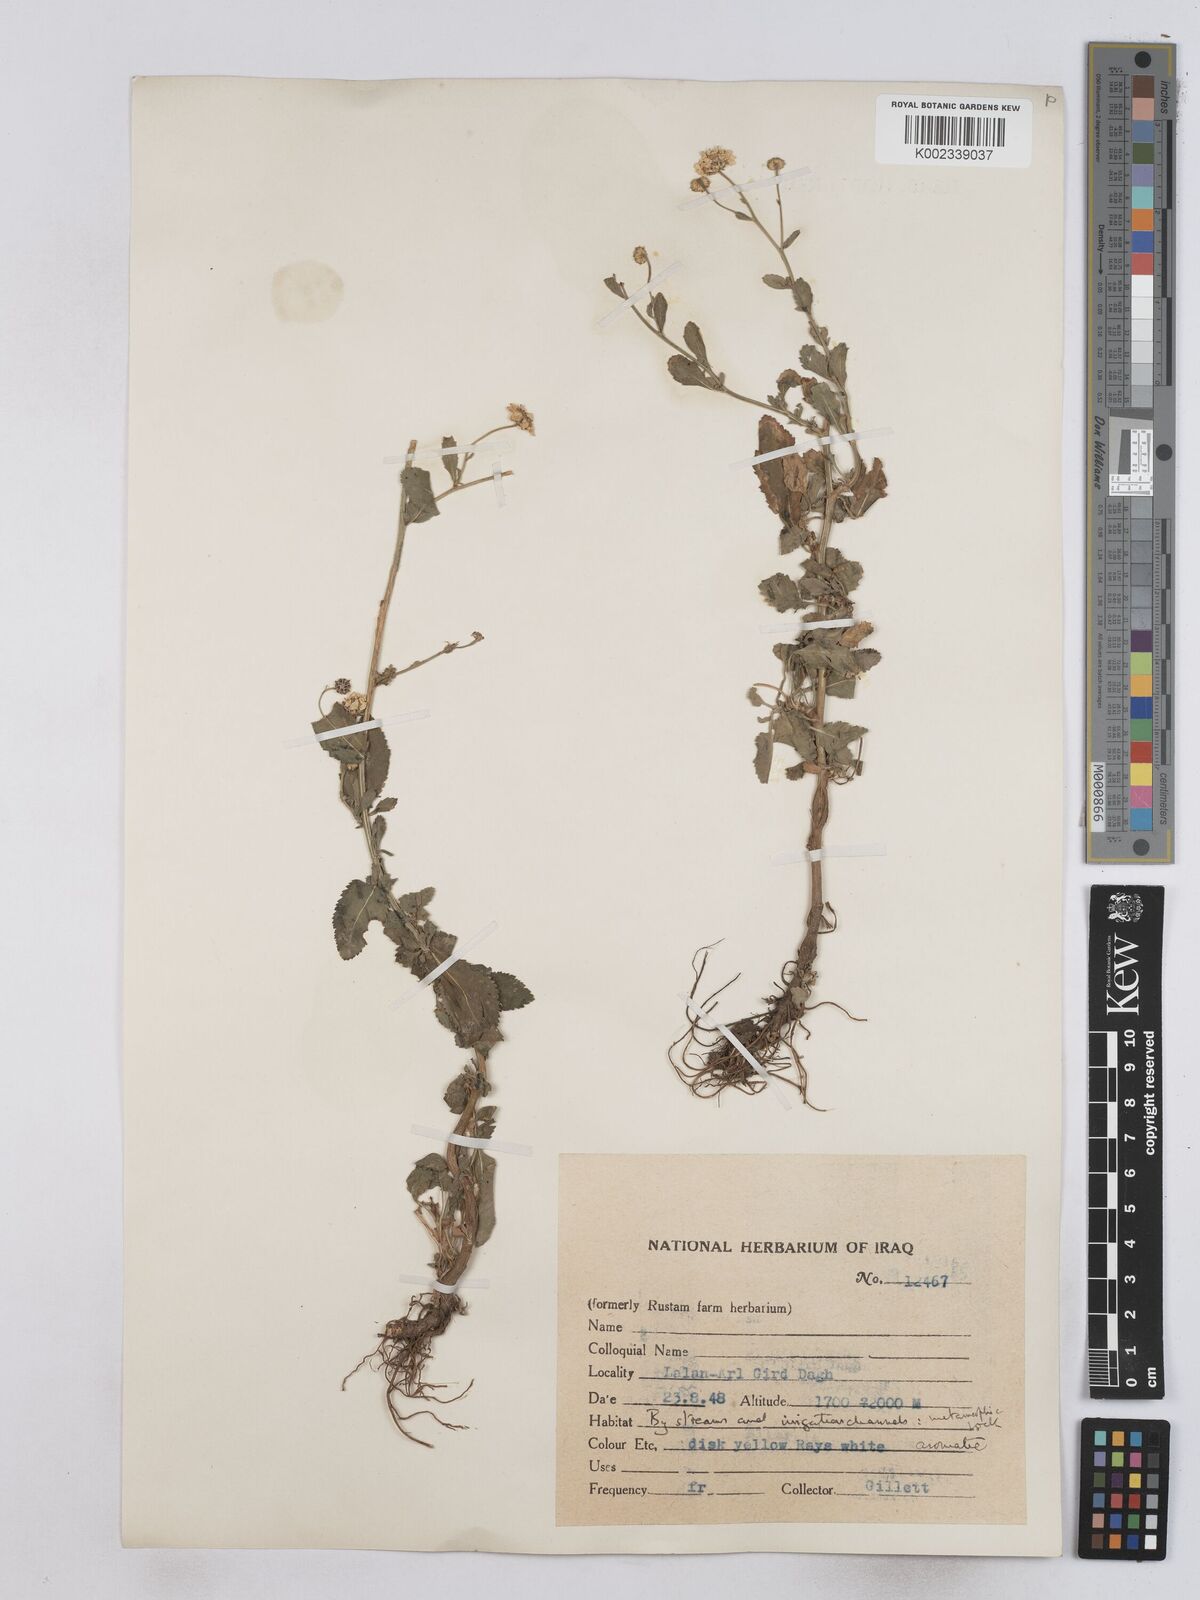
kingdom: Plantae
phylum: Tracheophyta
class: Magnoliopsida
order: Asterales
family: Asteraceae
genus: Tanacetum
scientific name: Tanacetum balsamitoides
